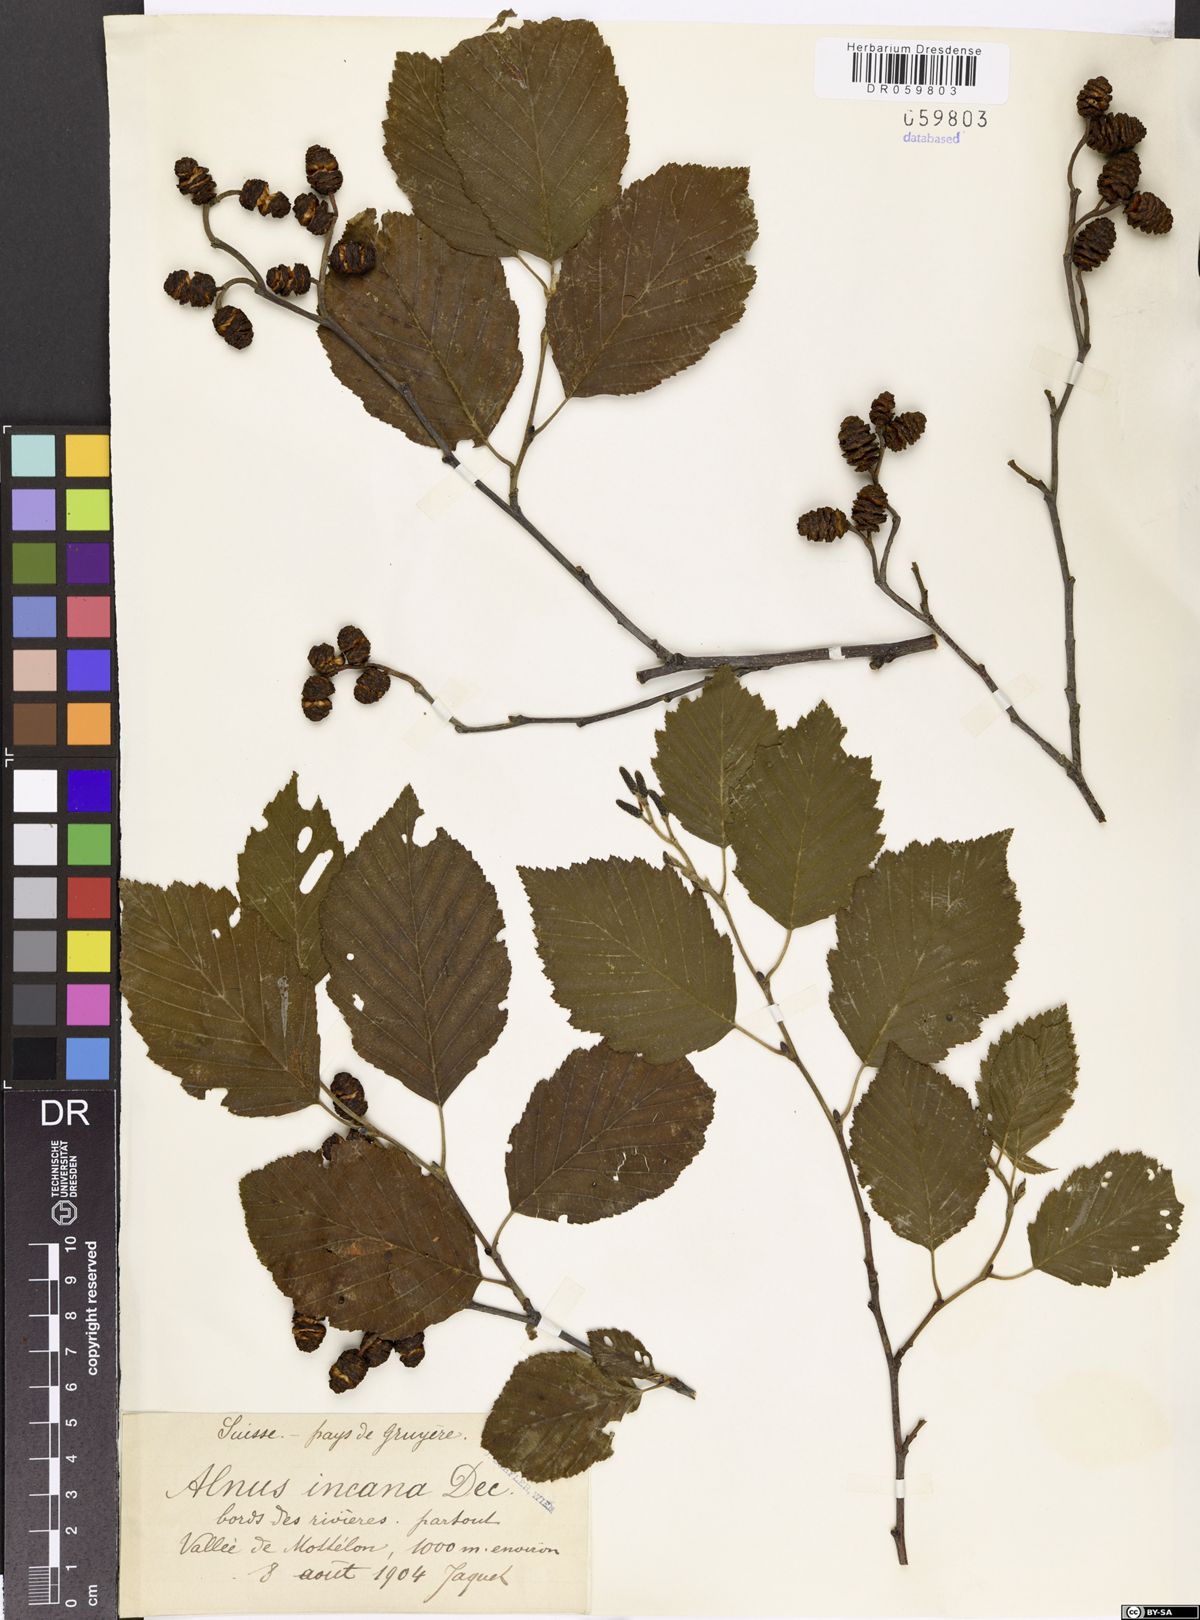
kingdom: Plantae
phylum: Tracheophyta
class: Magnoliopsida
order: Fagales
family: Betulaceae
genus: Alnus
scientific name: Alnus incana
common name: Grey alder
